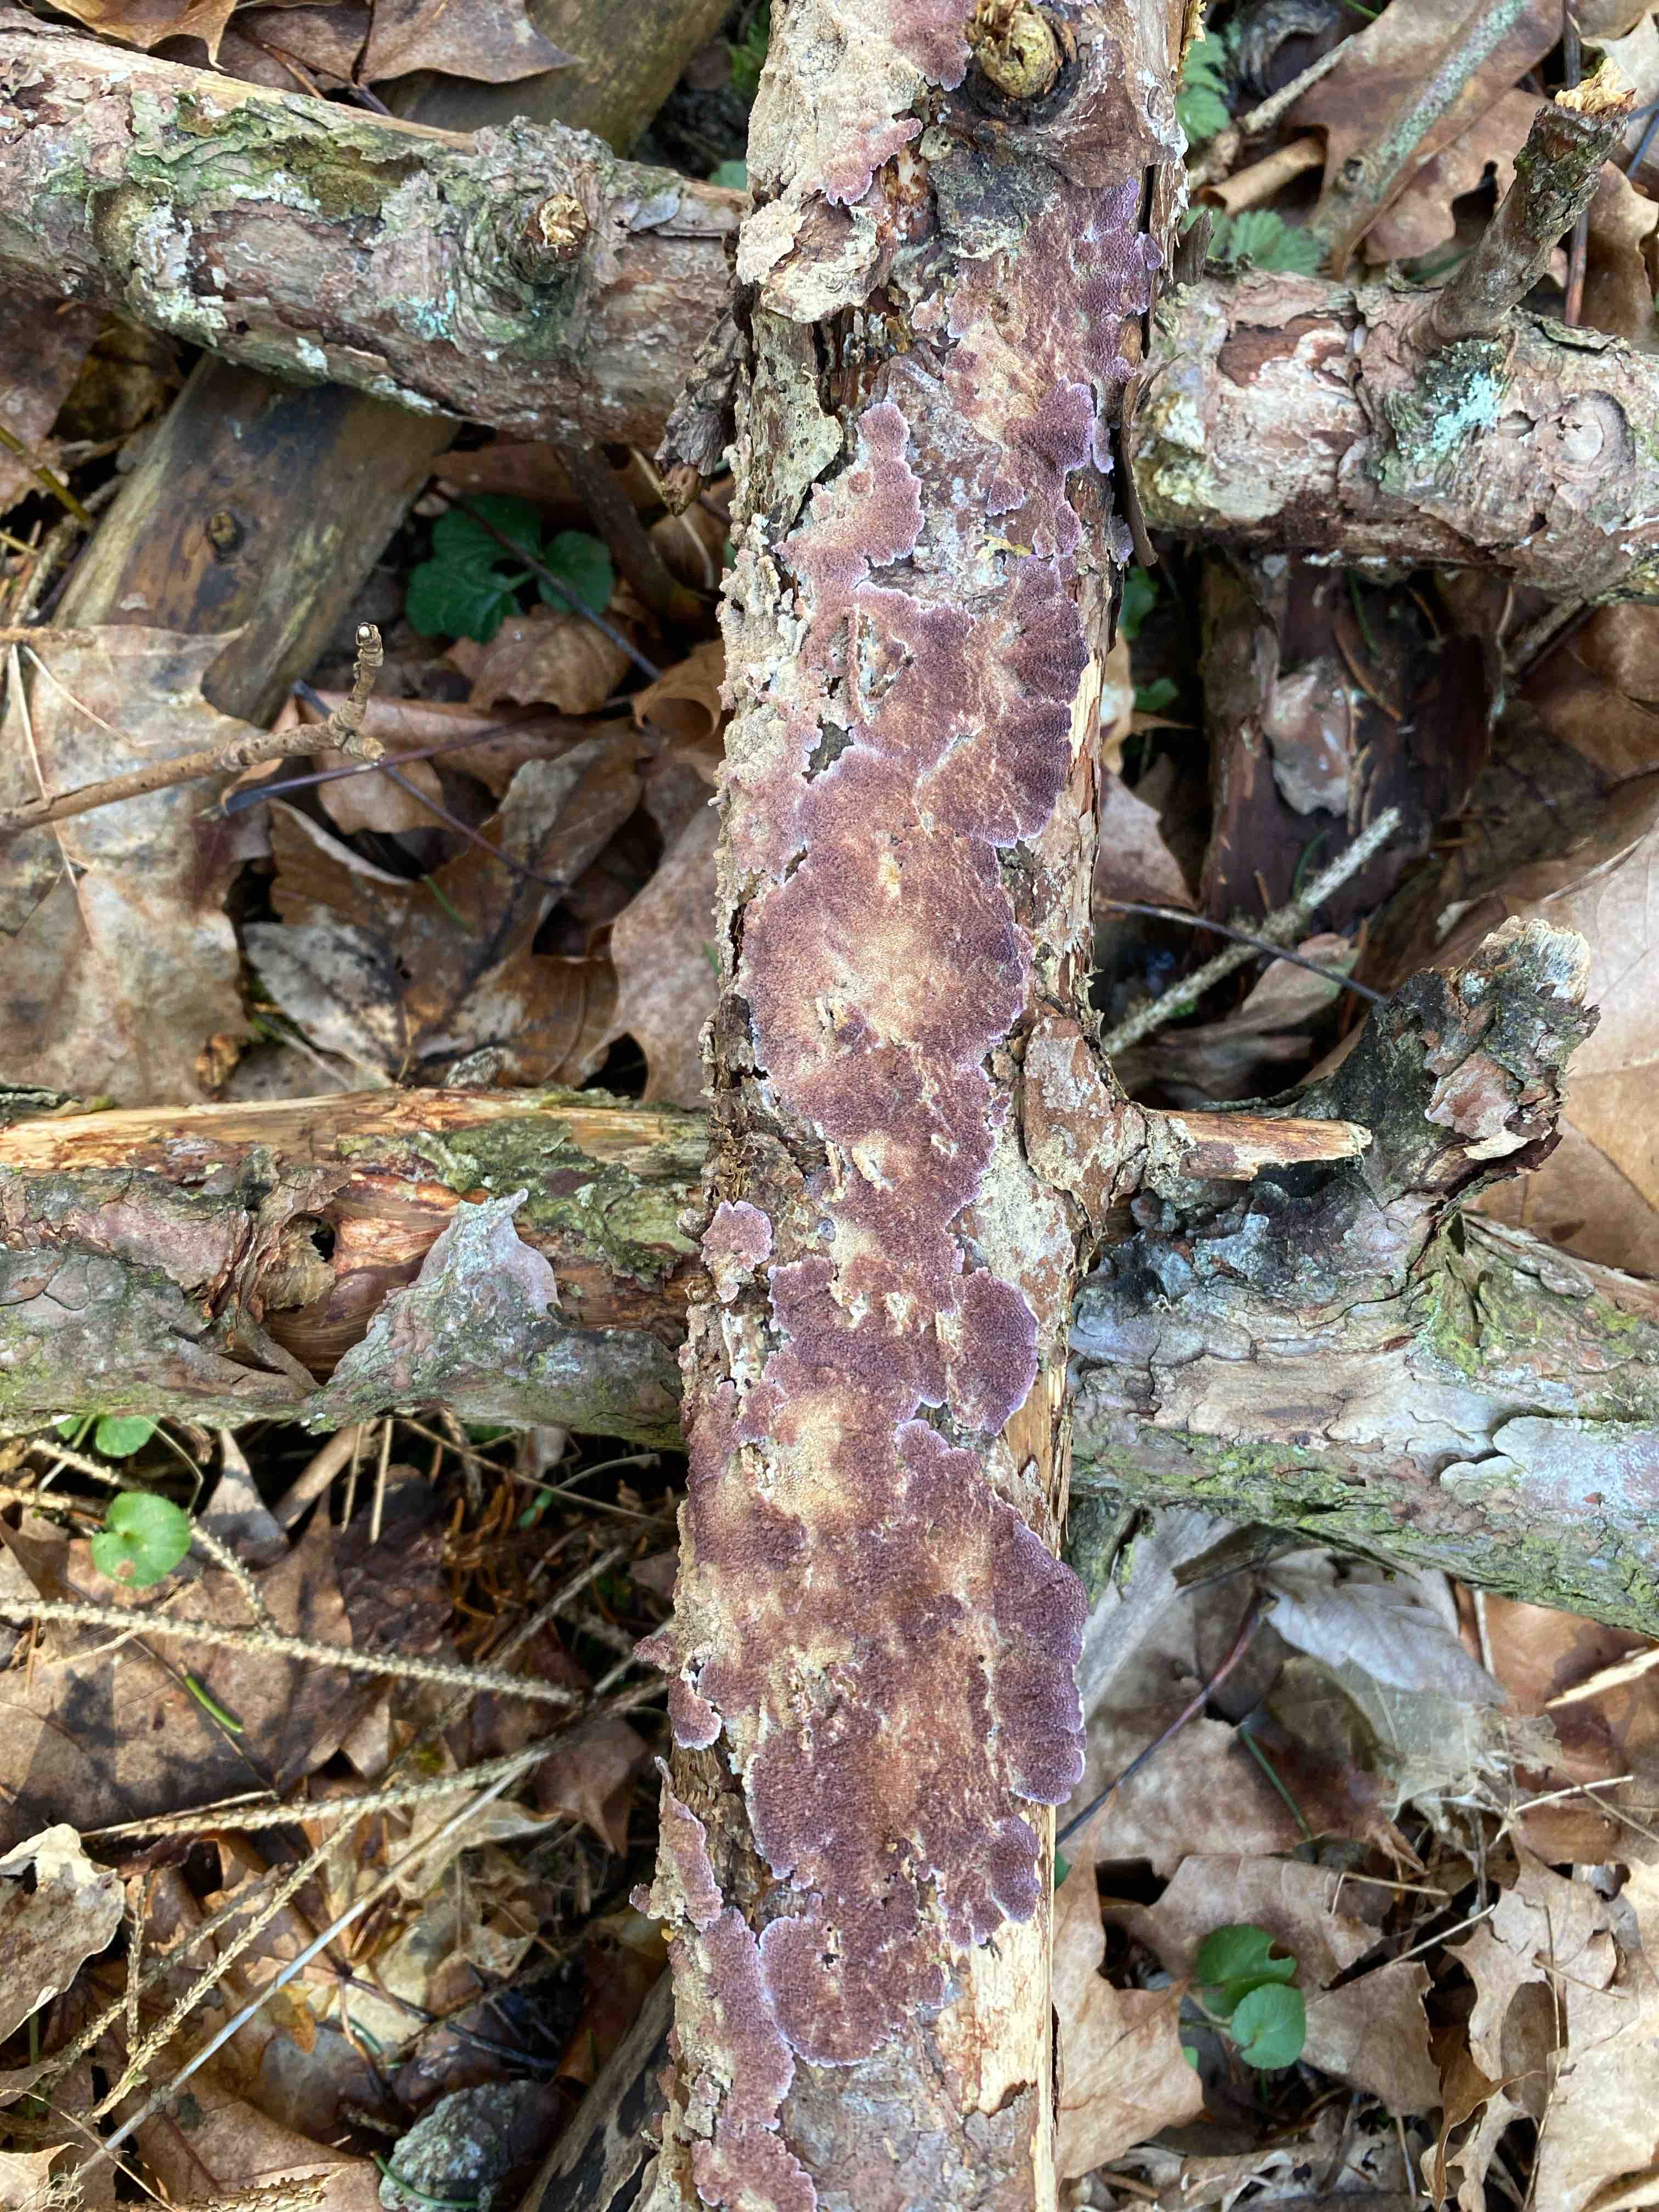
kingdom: Fungi
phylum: Basidiomycota
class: Agaricomycetes
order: Hymenochaetales
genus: Trichaptum
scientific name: Trichaptum abietinum
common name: almindelig violporesvamp
